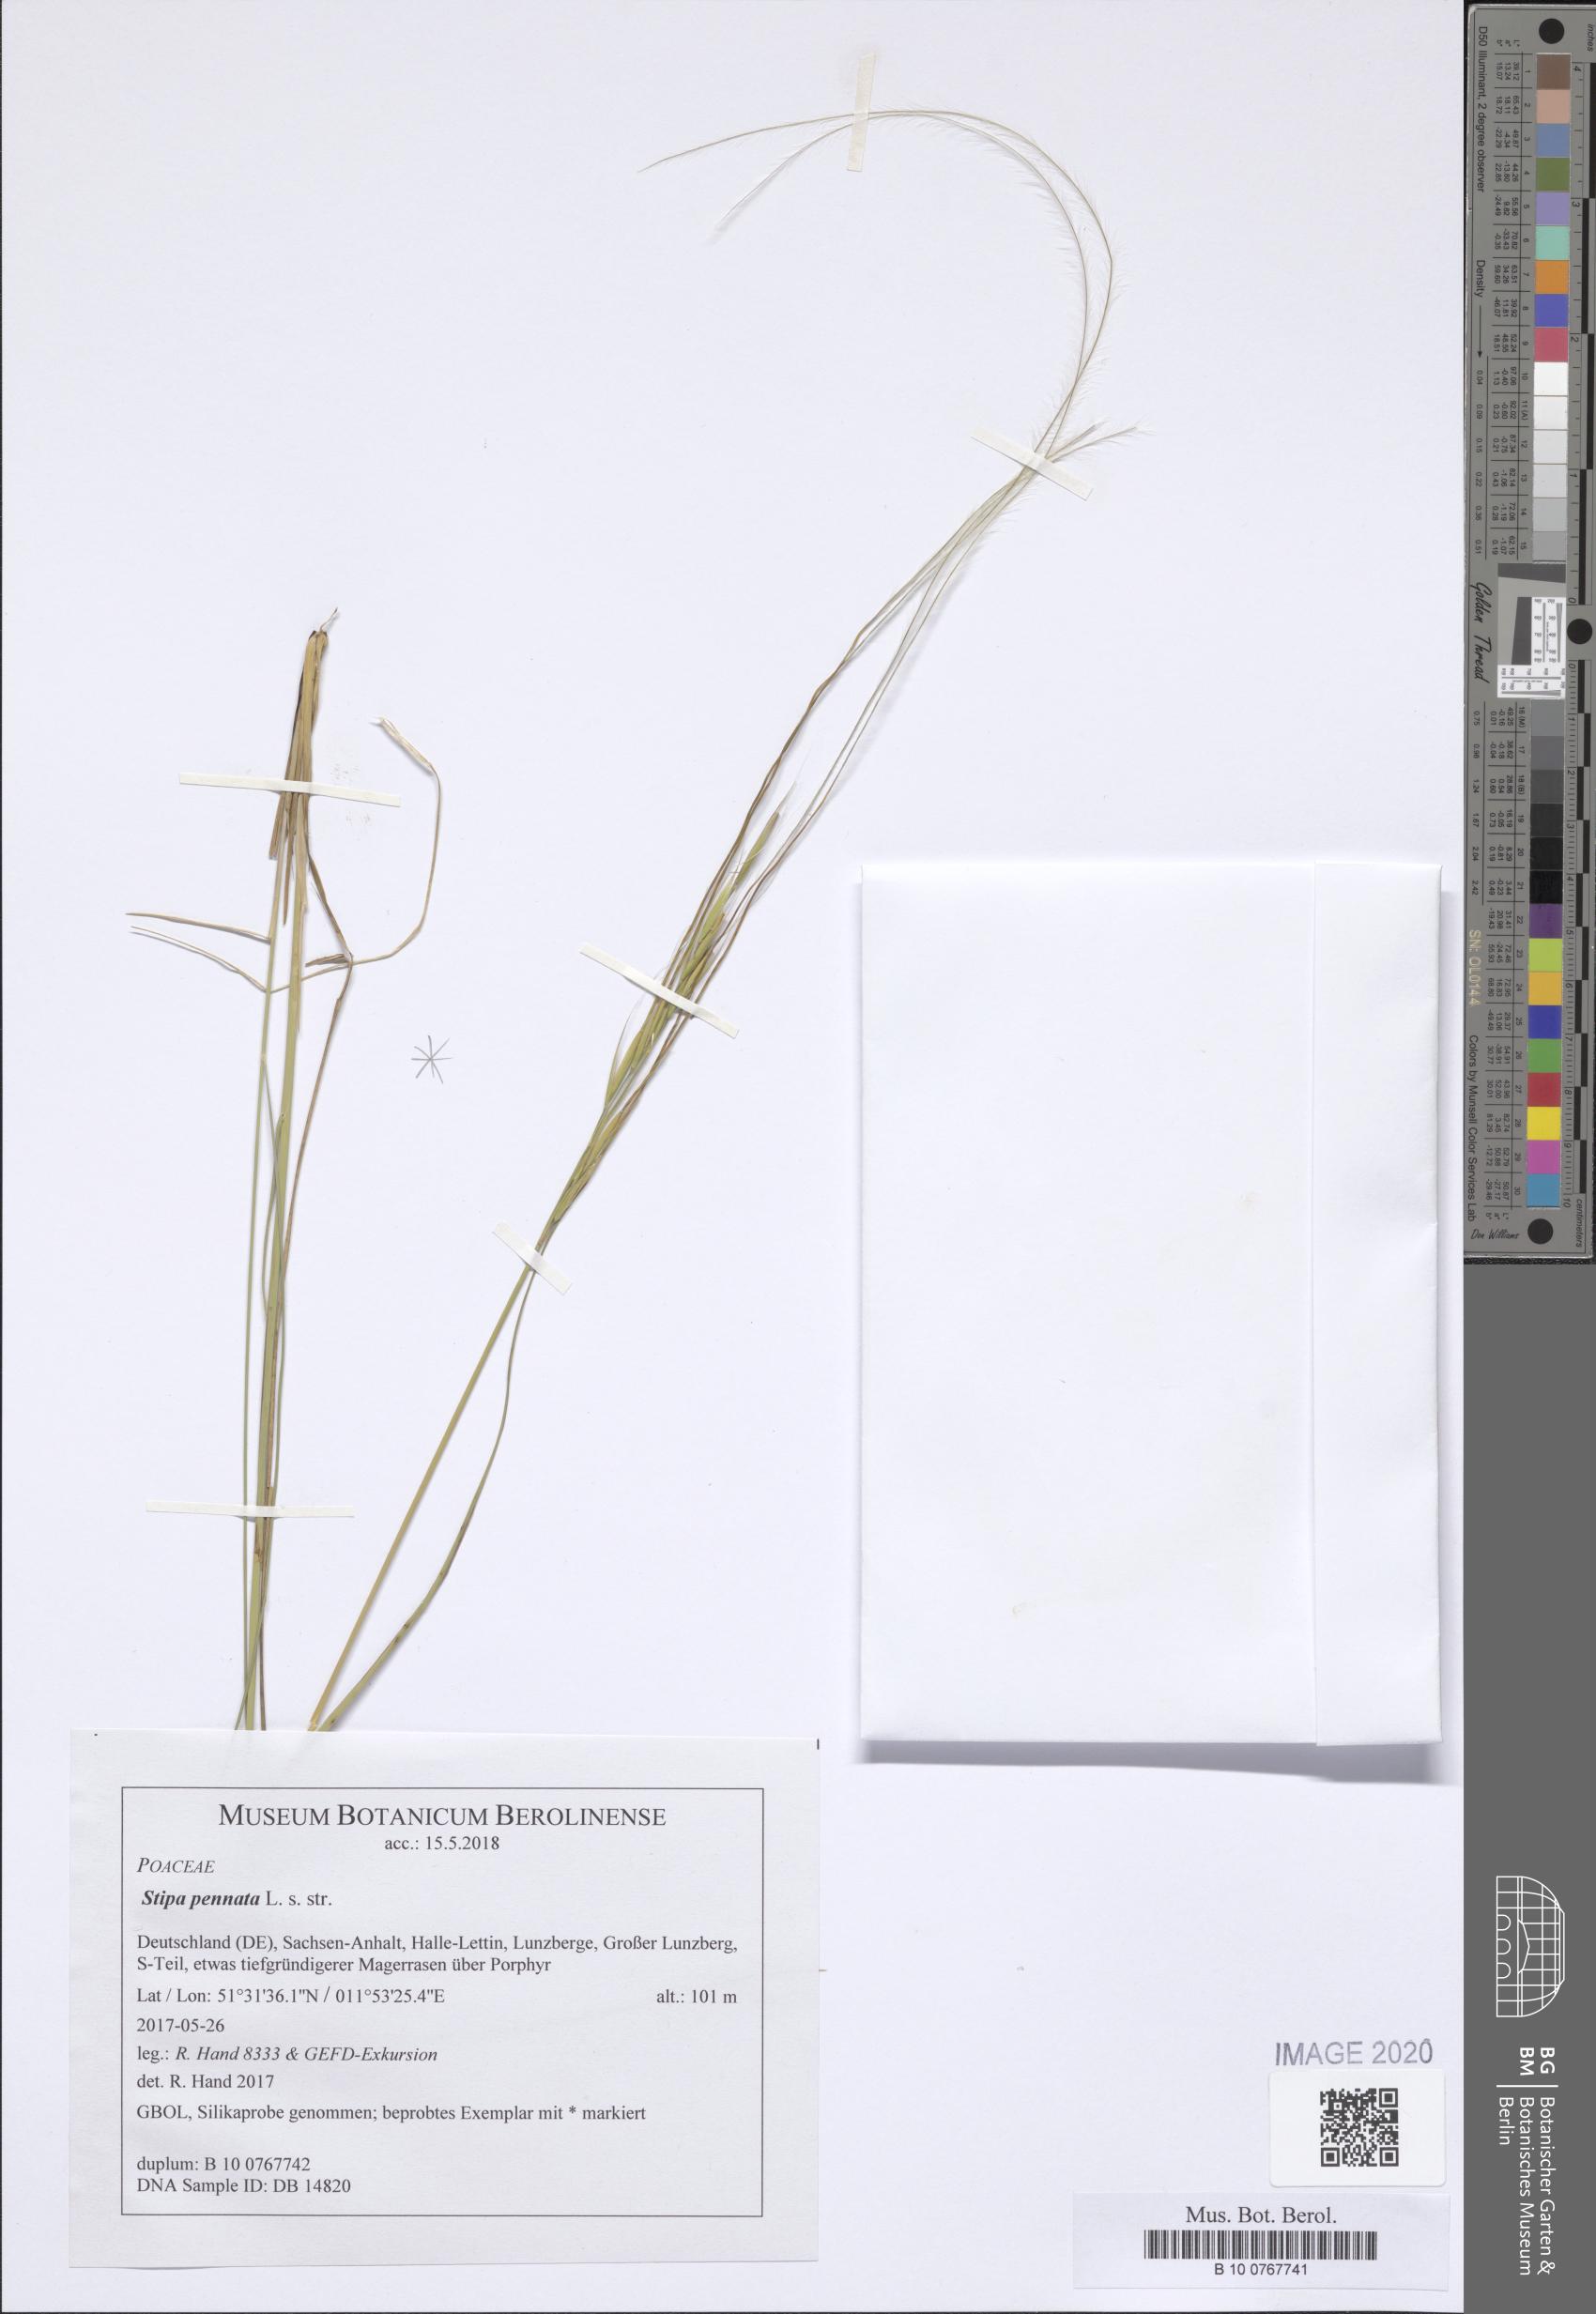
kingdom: Plantae
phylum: Tracheophyta
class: Liliopsida
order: Poales
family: Poaceae
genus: Stipa
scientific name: Stipa pennata
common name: European feather grass
